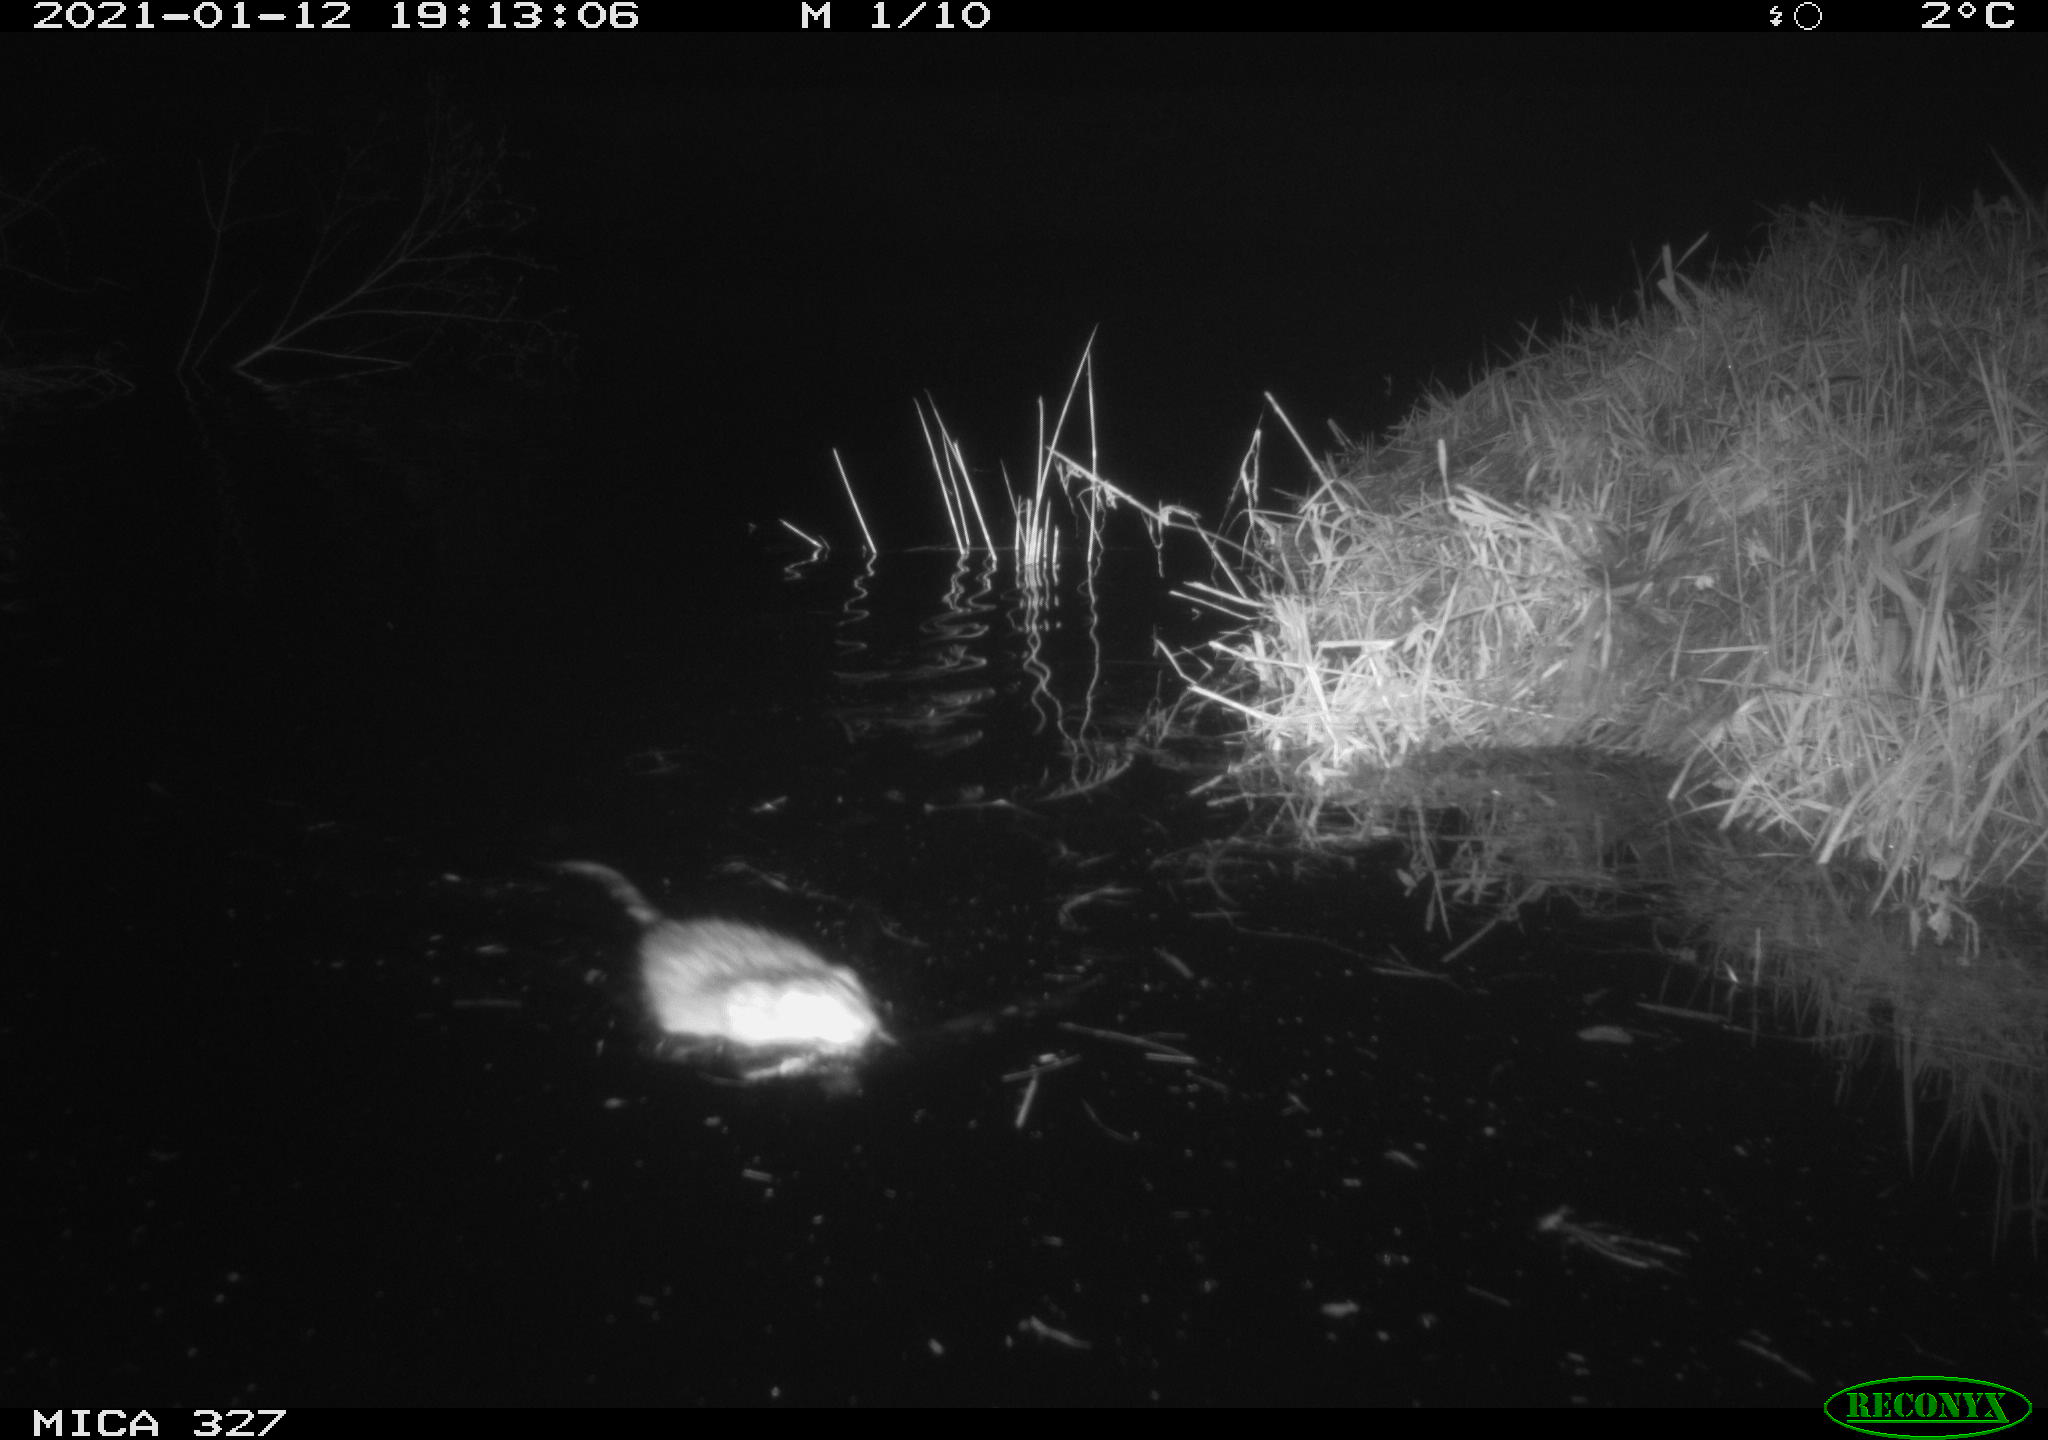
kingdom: Animalia
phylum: Chordata
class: Mammalia
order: Rodentia
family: Cricetidae
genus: Ondatra
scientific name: Ondatra zibethicus
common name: Muskrat
